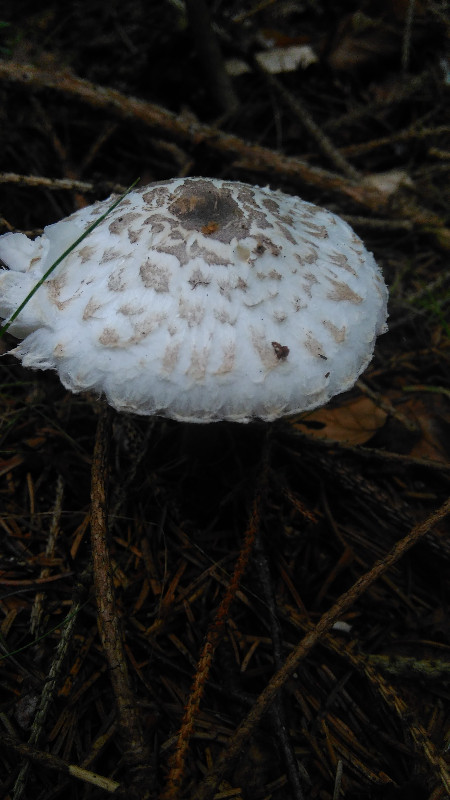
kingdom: Fungi
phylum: Basidiomycota
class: Agaricomycetes
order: Agaricales
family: Agaricaceae
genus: Leucoagaricus
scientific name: Leucoagaricus nympharum
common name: gran-silkehat
